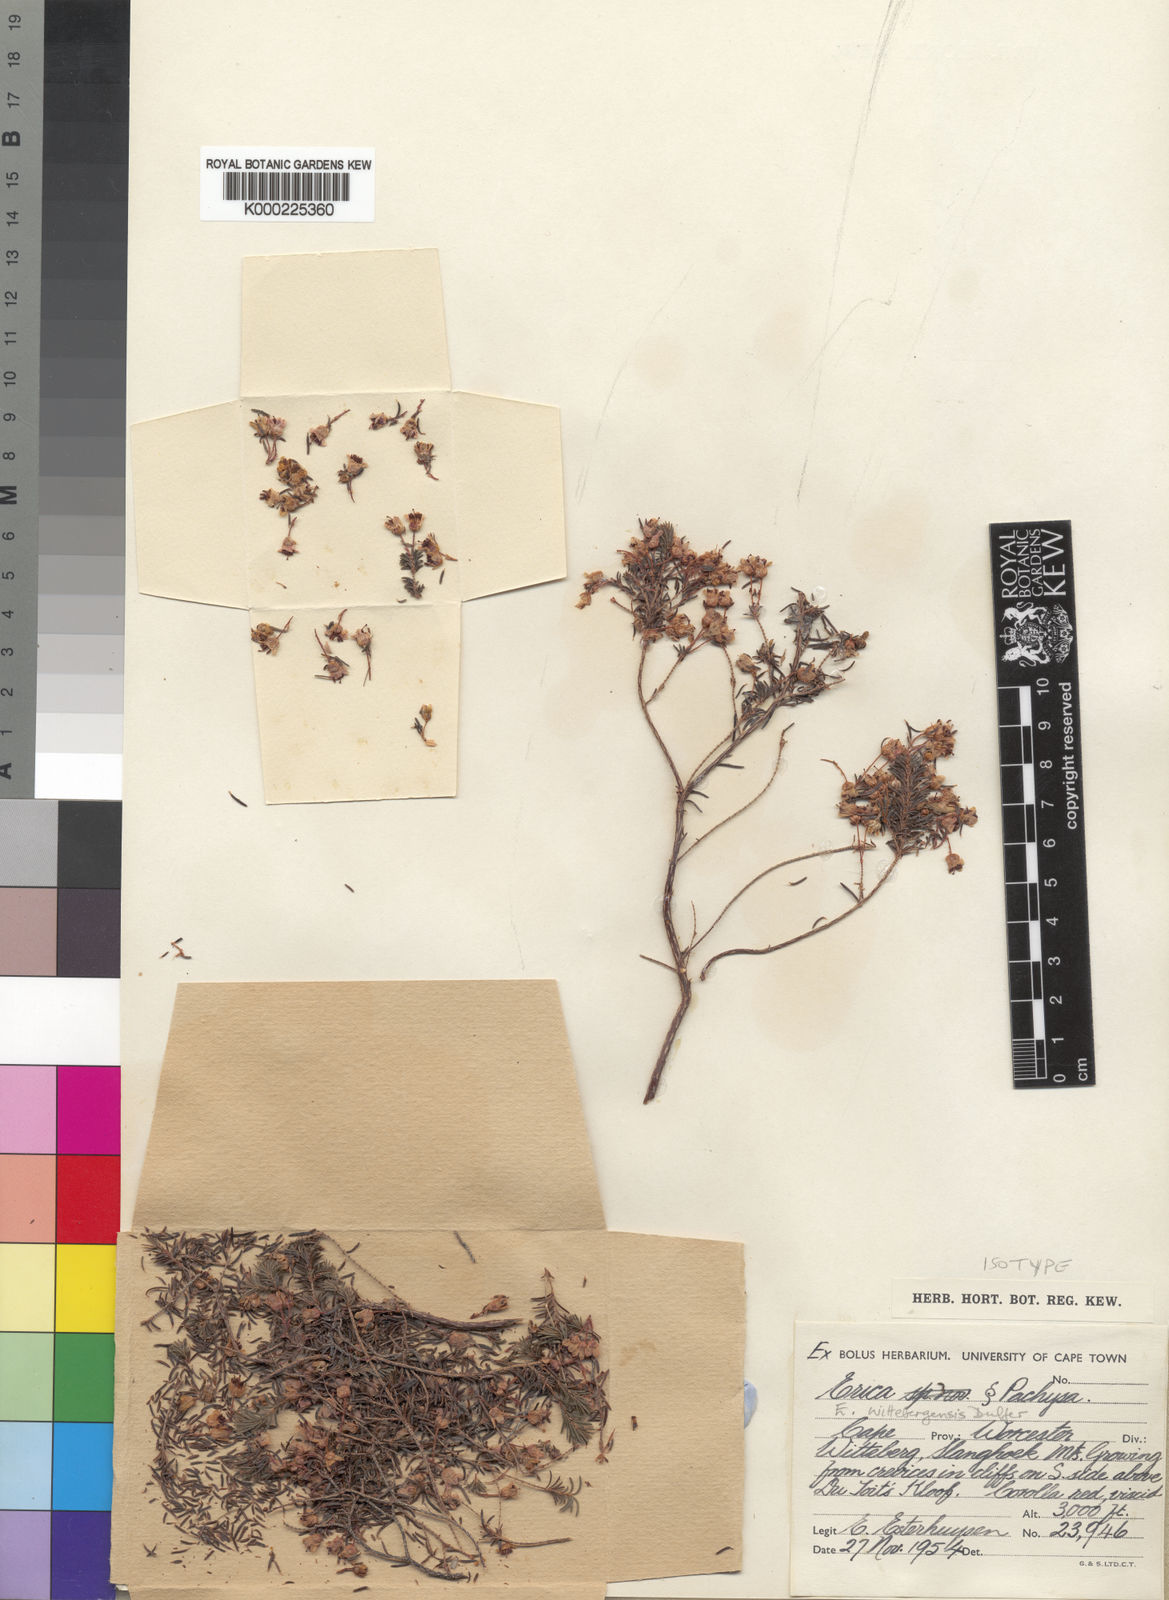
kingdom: Plantae
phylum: Tracheophyta
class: Magnoliopsida
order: Ericales
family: Ericaceae
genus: Erica
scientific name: Erica wittebergensis
